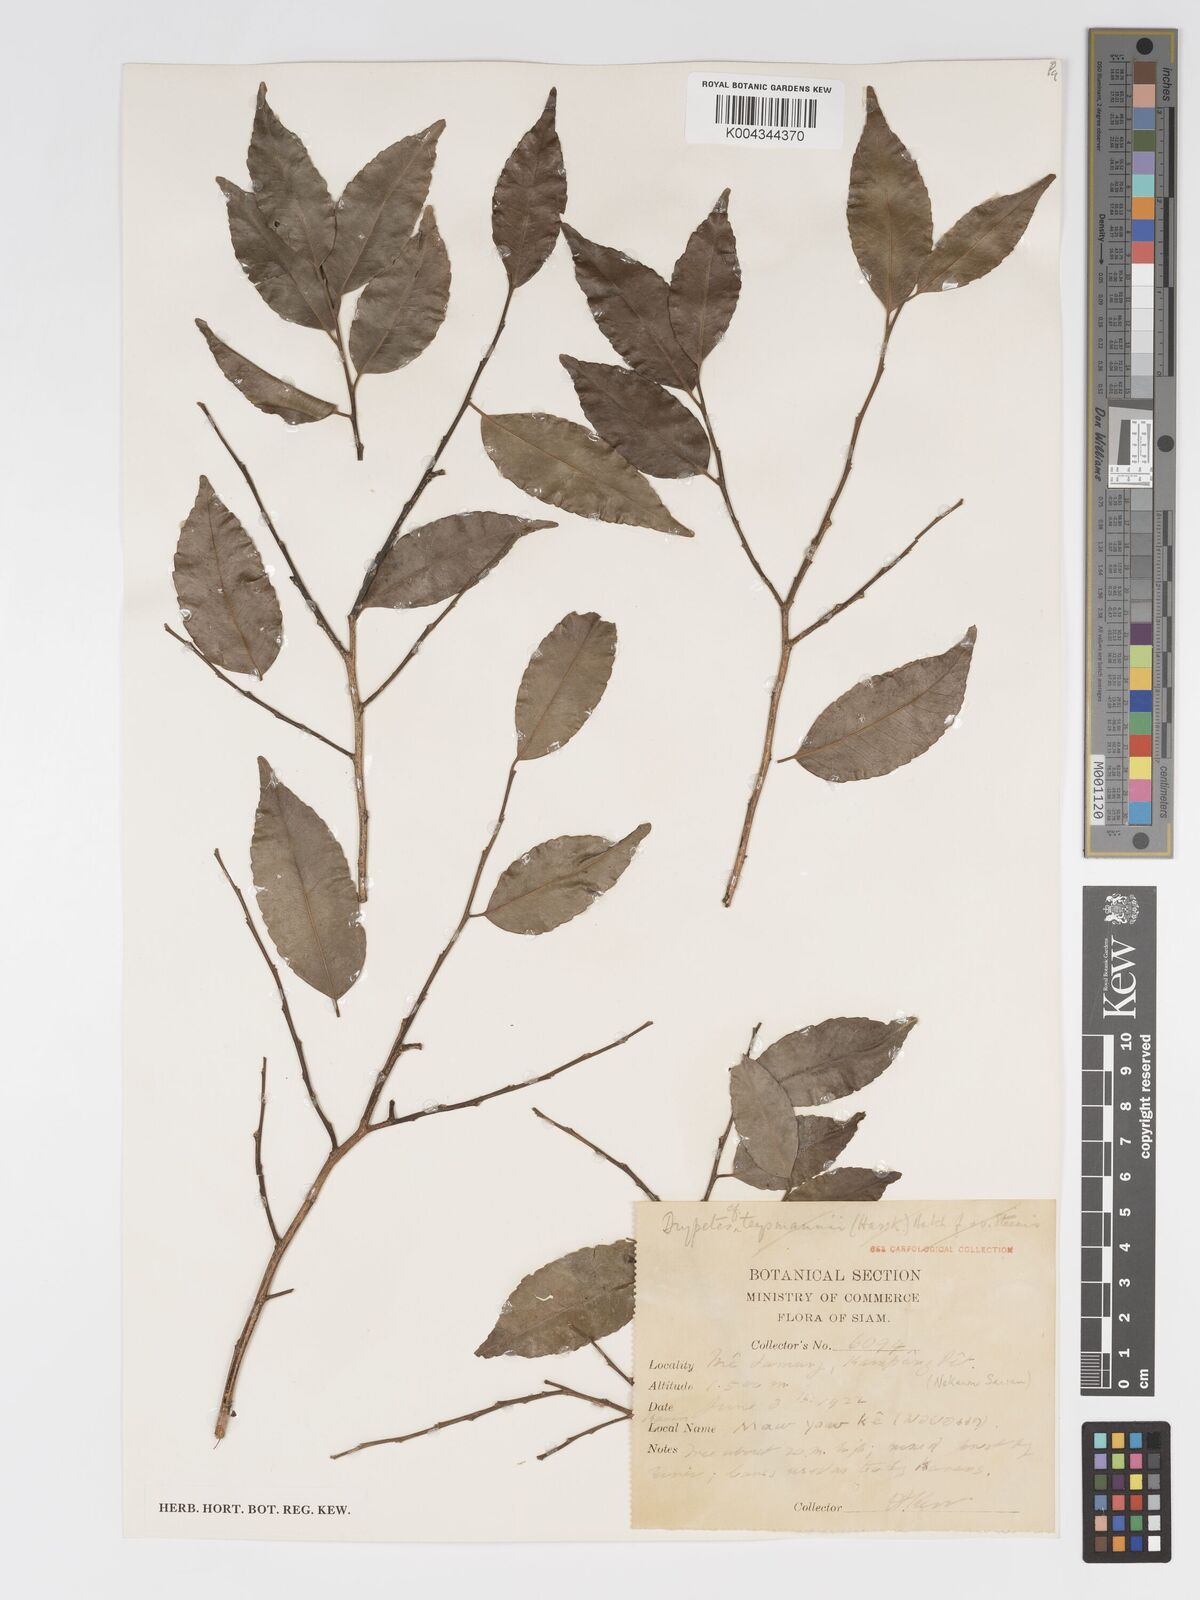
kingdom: Plantae
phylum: Tracheophyta
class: Magnoliopsida
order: Malpighiales
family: Putranjivaceae
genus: Drypetes
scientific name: Drypetes cambodica
